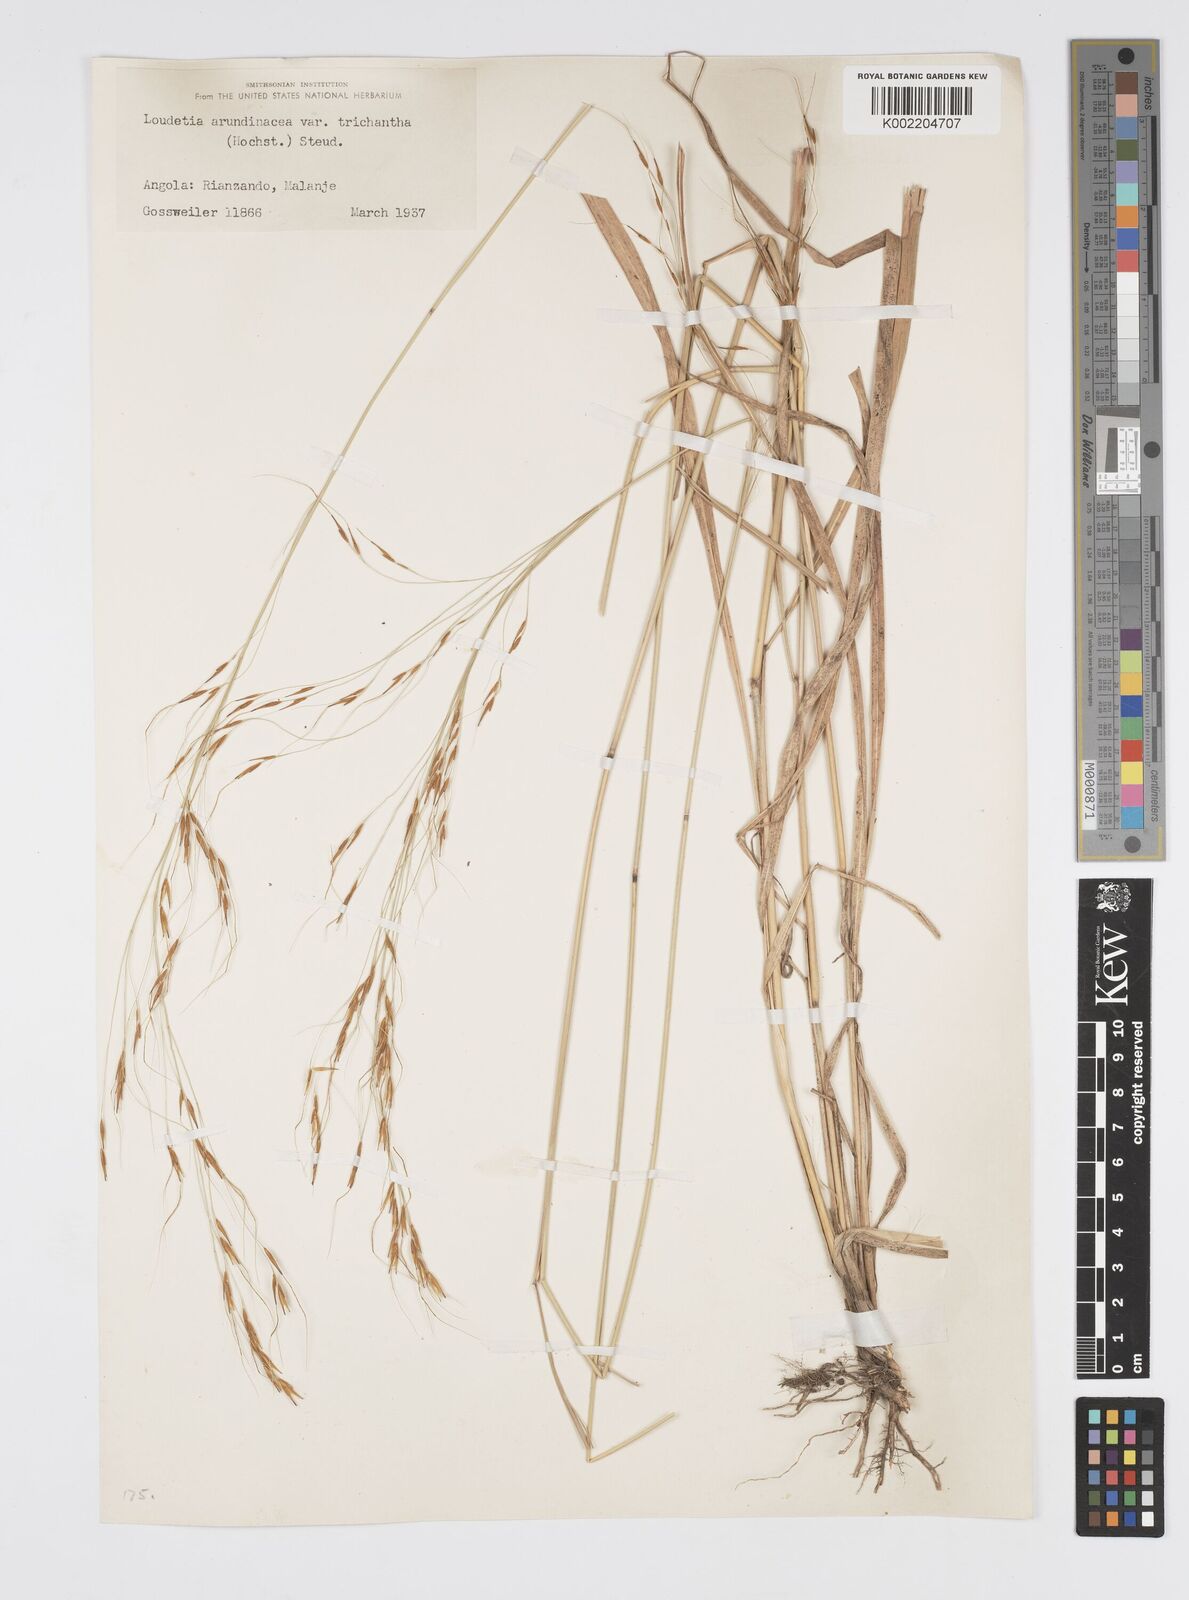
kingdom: Plantae
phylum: Tracheophyta
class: Liliopsida
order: Poales
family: Poaceae
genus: Loudetia
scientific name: Loudetia arundinacea
